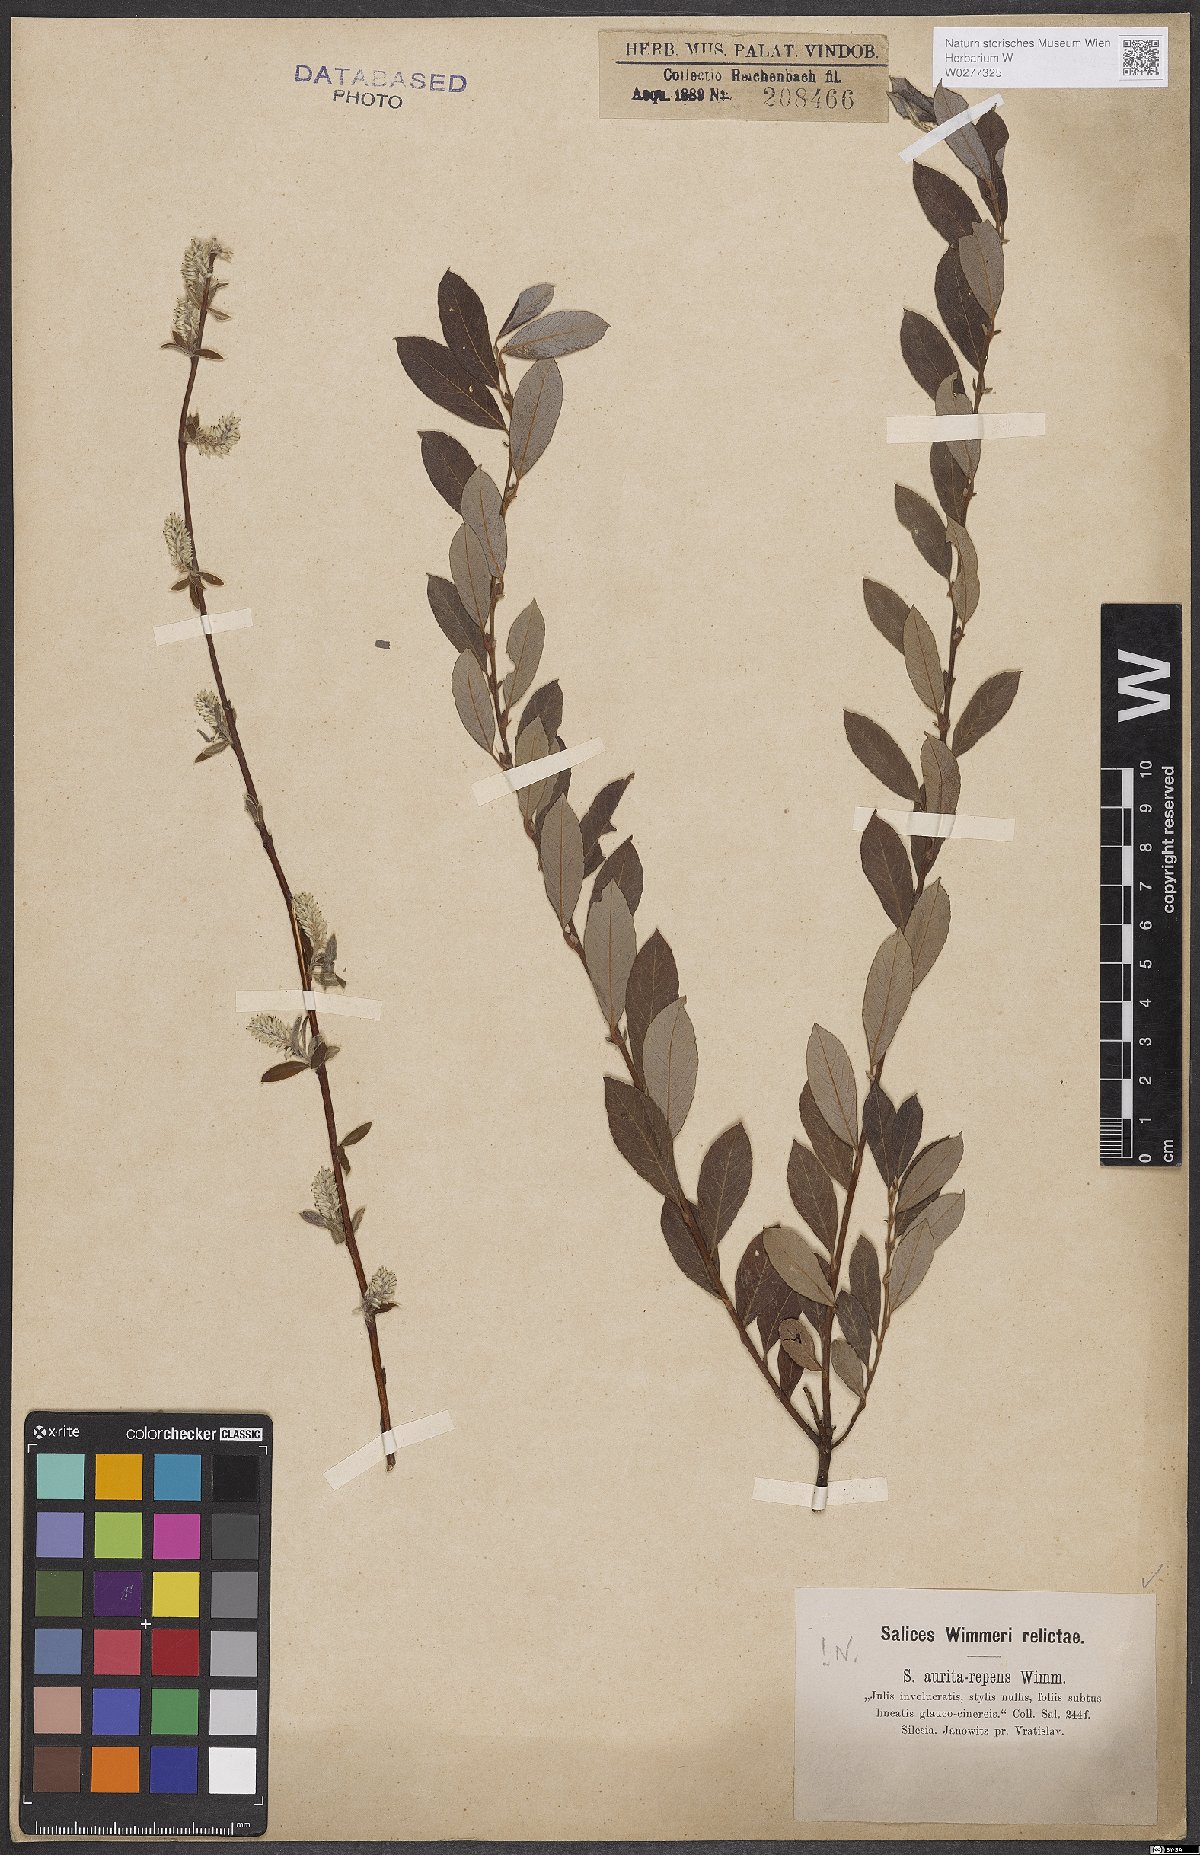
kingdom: Plantae
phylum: Tracheophyta
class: Magnoliopsida
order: Malpighiales
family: Salicaceae
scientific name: Salicaceae
